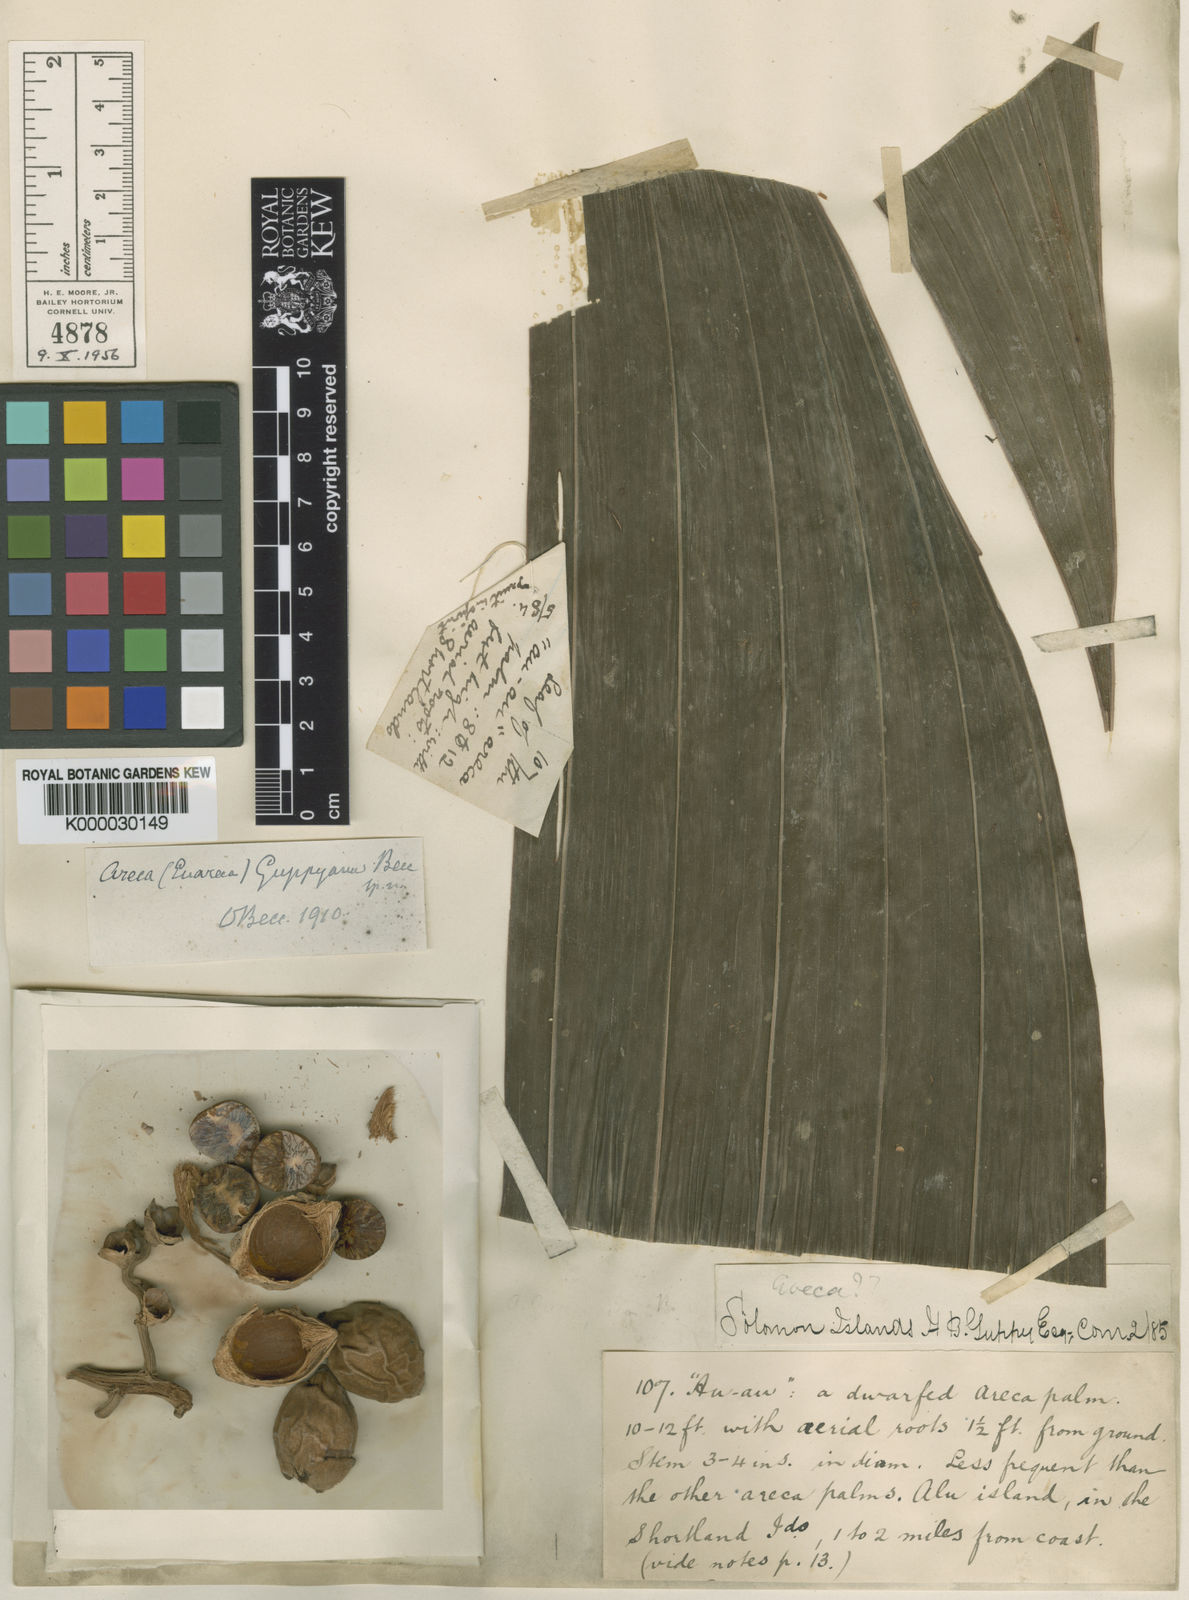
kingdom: Plantae
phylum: Tracheophyta
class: Liliopsida
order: Arecales
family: Arecaceae
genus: Areca
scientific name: Areca macrocalyx
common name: Highland betel-nut palm
